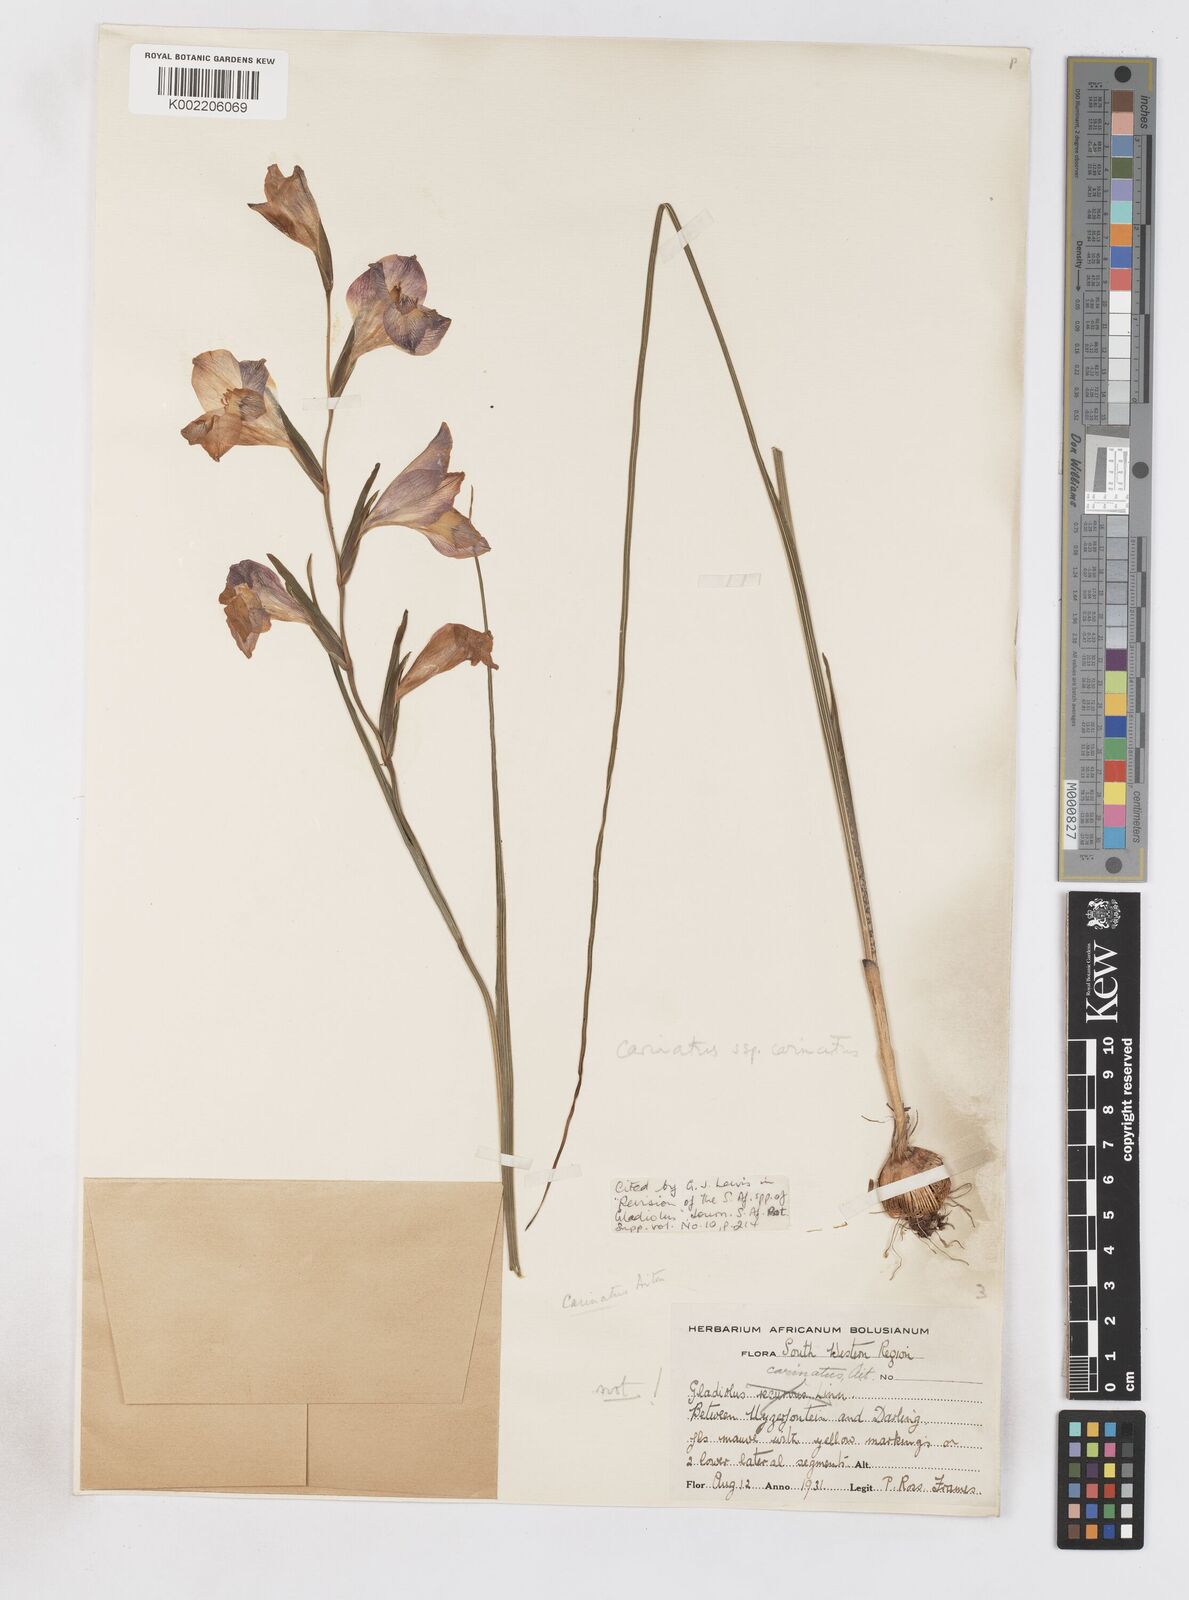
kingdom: Plantae
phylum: Tracheophyta
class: Liliopsida
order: Asparagales
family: Iridaceae
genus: Gladiolus
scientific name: Gladiolus carinatus
